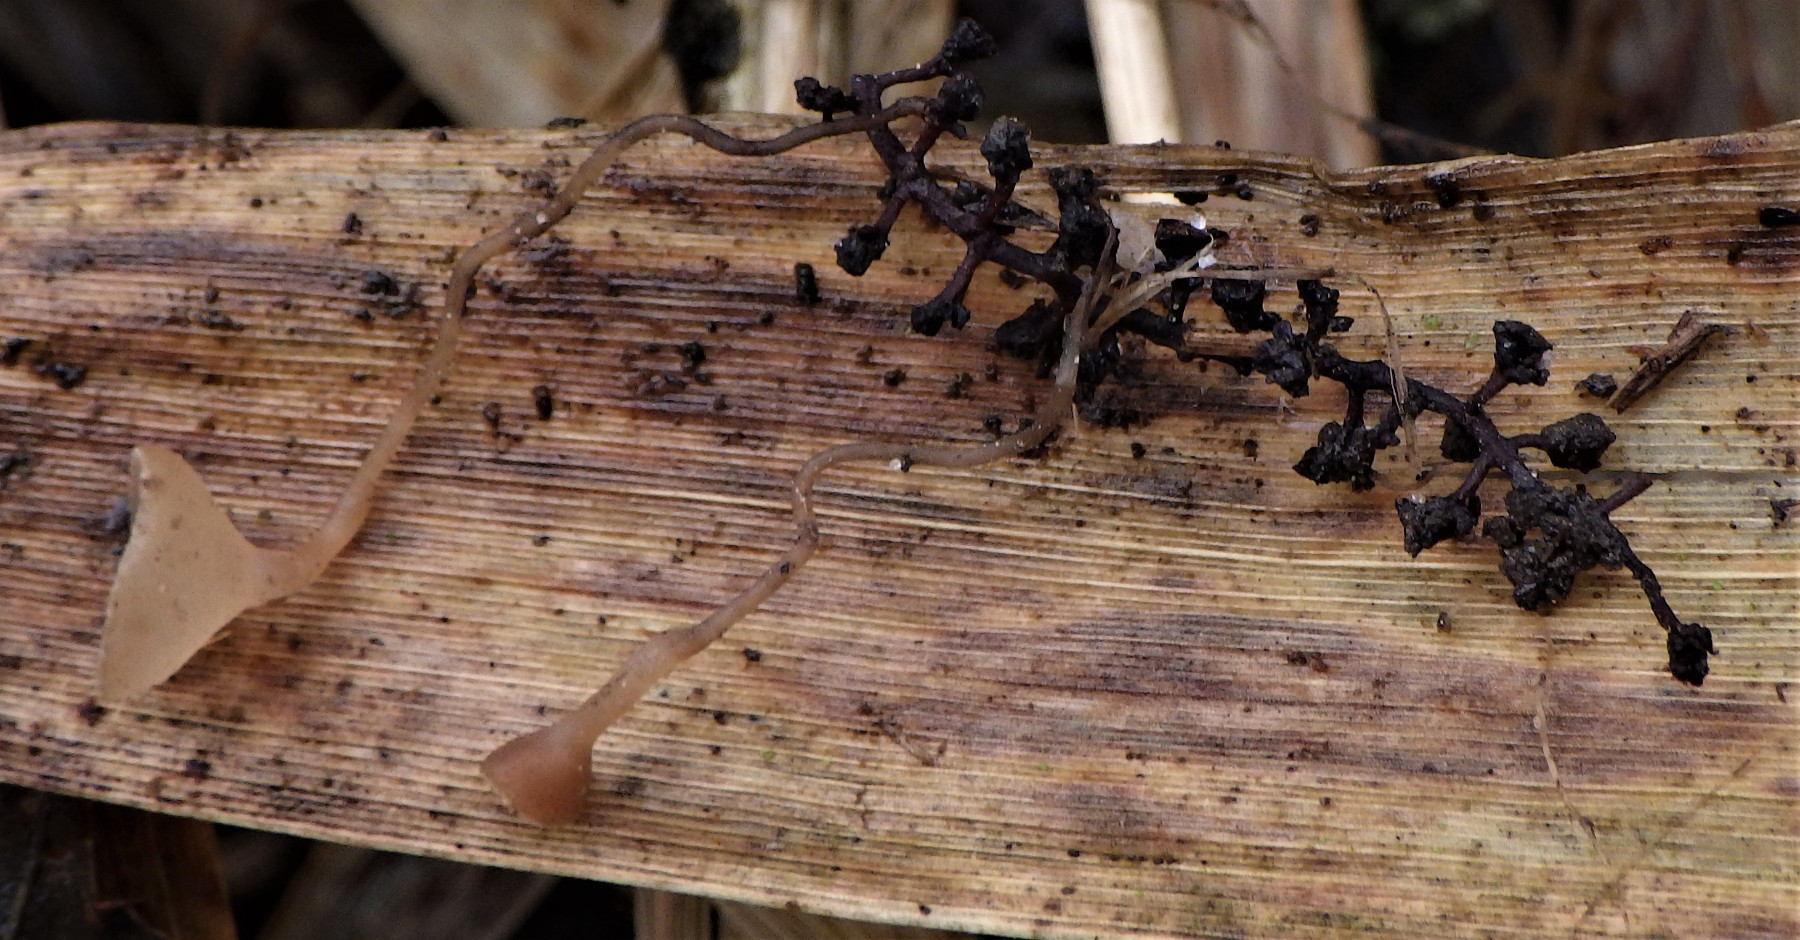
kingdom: Fungi
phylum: Ascomycota
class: Leotiomycetes
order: Helotiales
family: Sclerotiniaceae
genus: Ciboria
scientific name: Ciboria amentacea
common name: ellerakle-knoldskive
